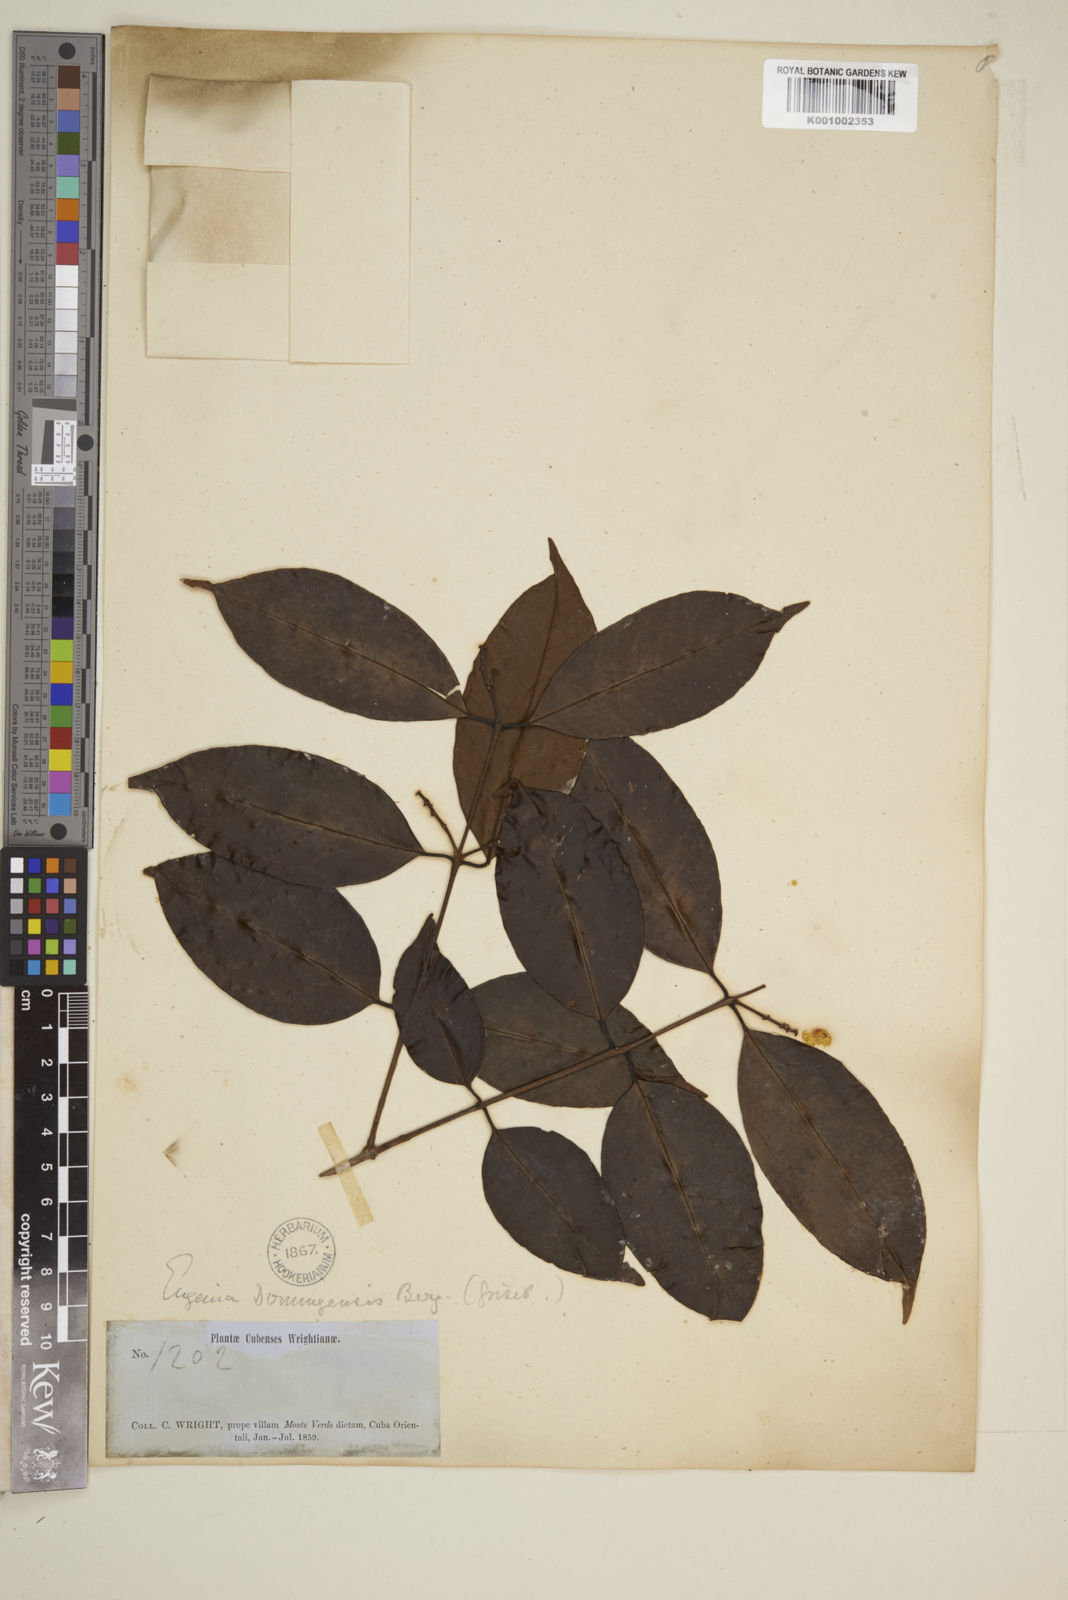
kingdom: Plantae
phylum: Tracheophyta
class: Magnoliopsida
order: Myrtales
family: Myrtaceae
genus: Eugenia
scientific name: Eugenia aeruginea
